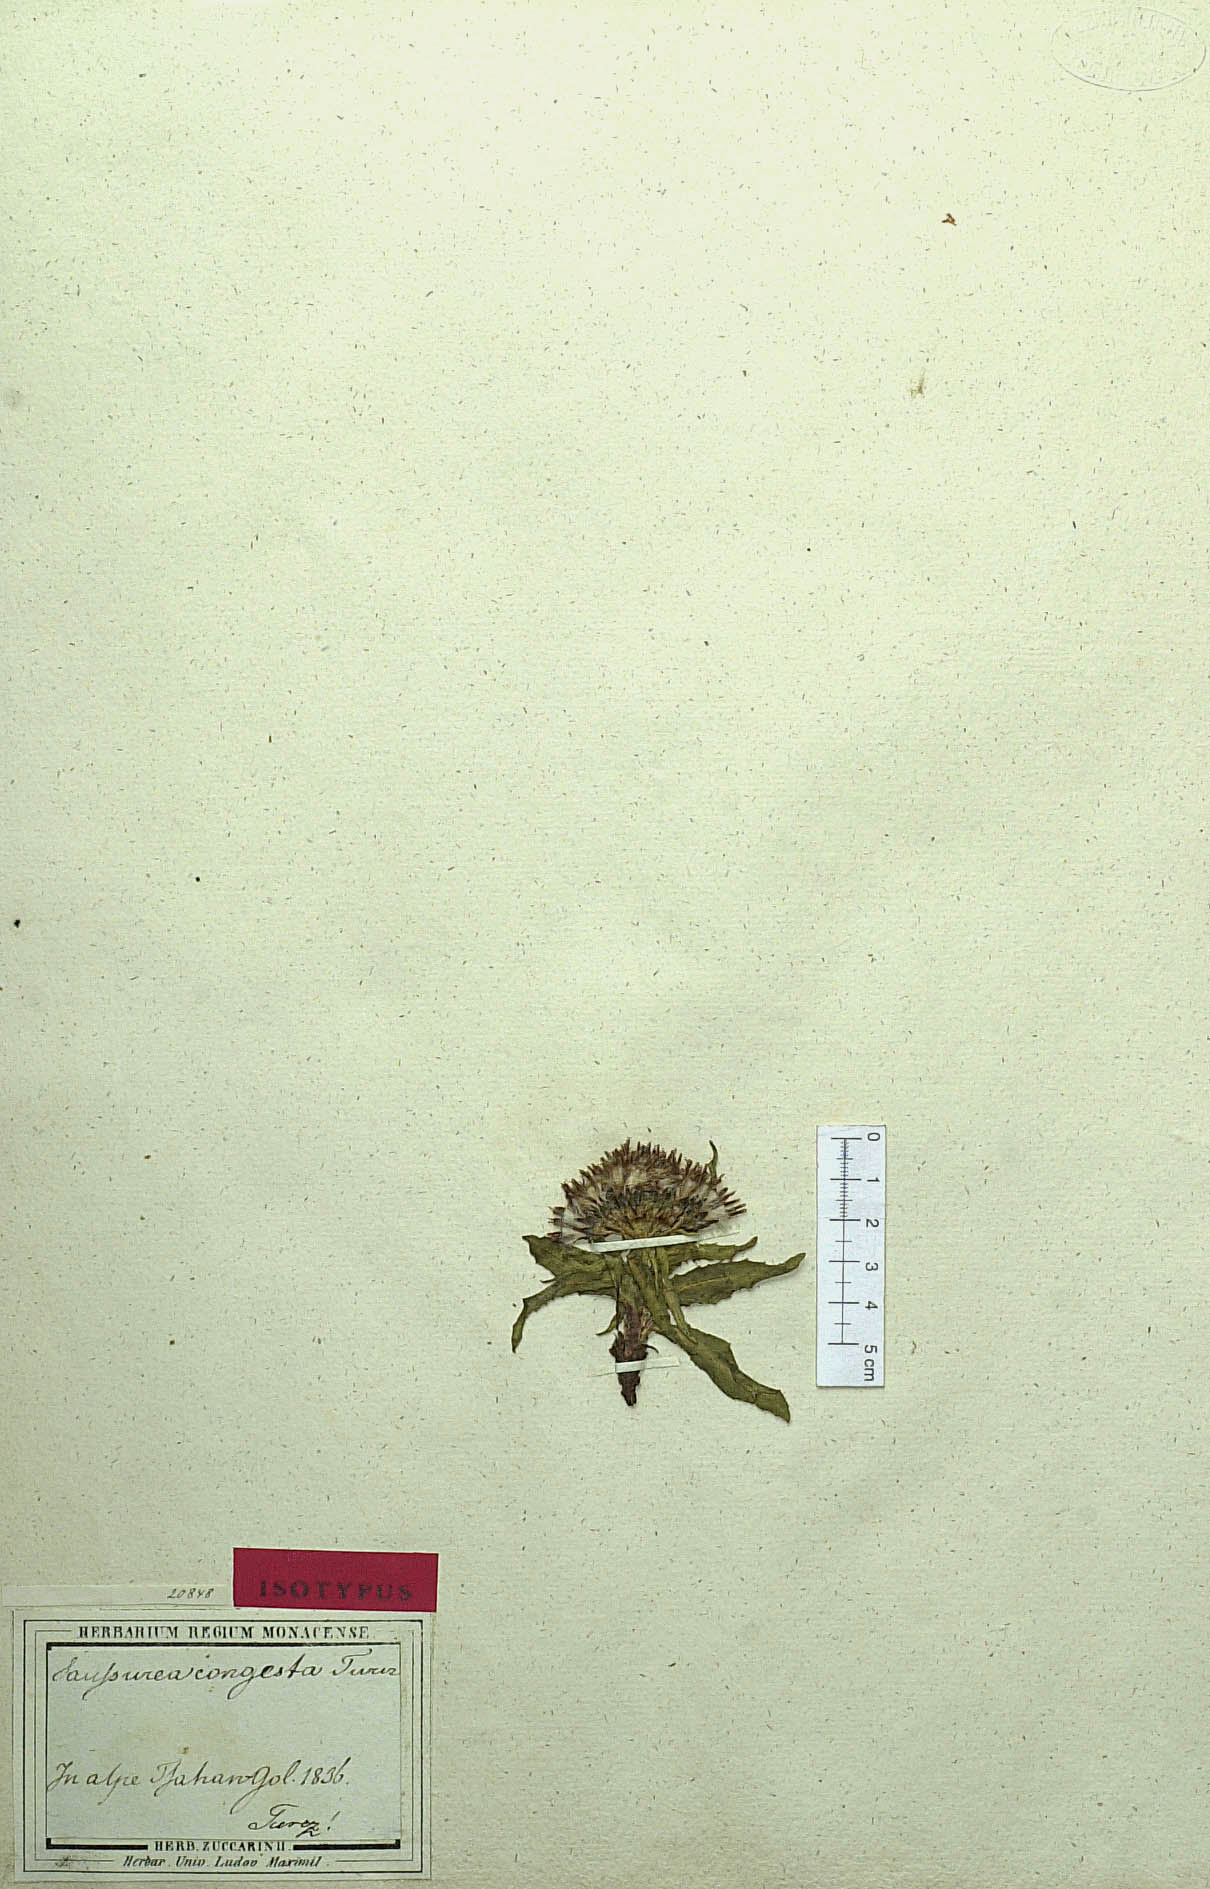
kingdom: Plantae
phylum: Tracheophyta
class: Magnoliopsida
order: Asterales
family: Asteraceae
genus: Saussurea
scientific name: Saussurea congesta
